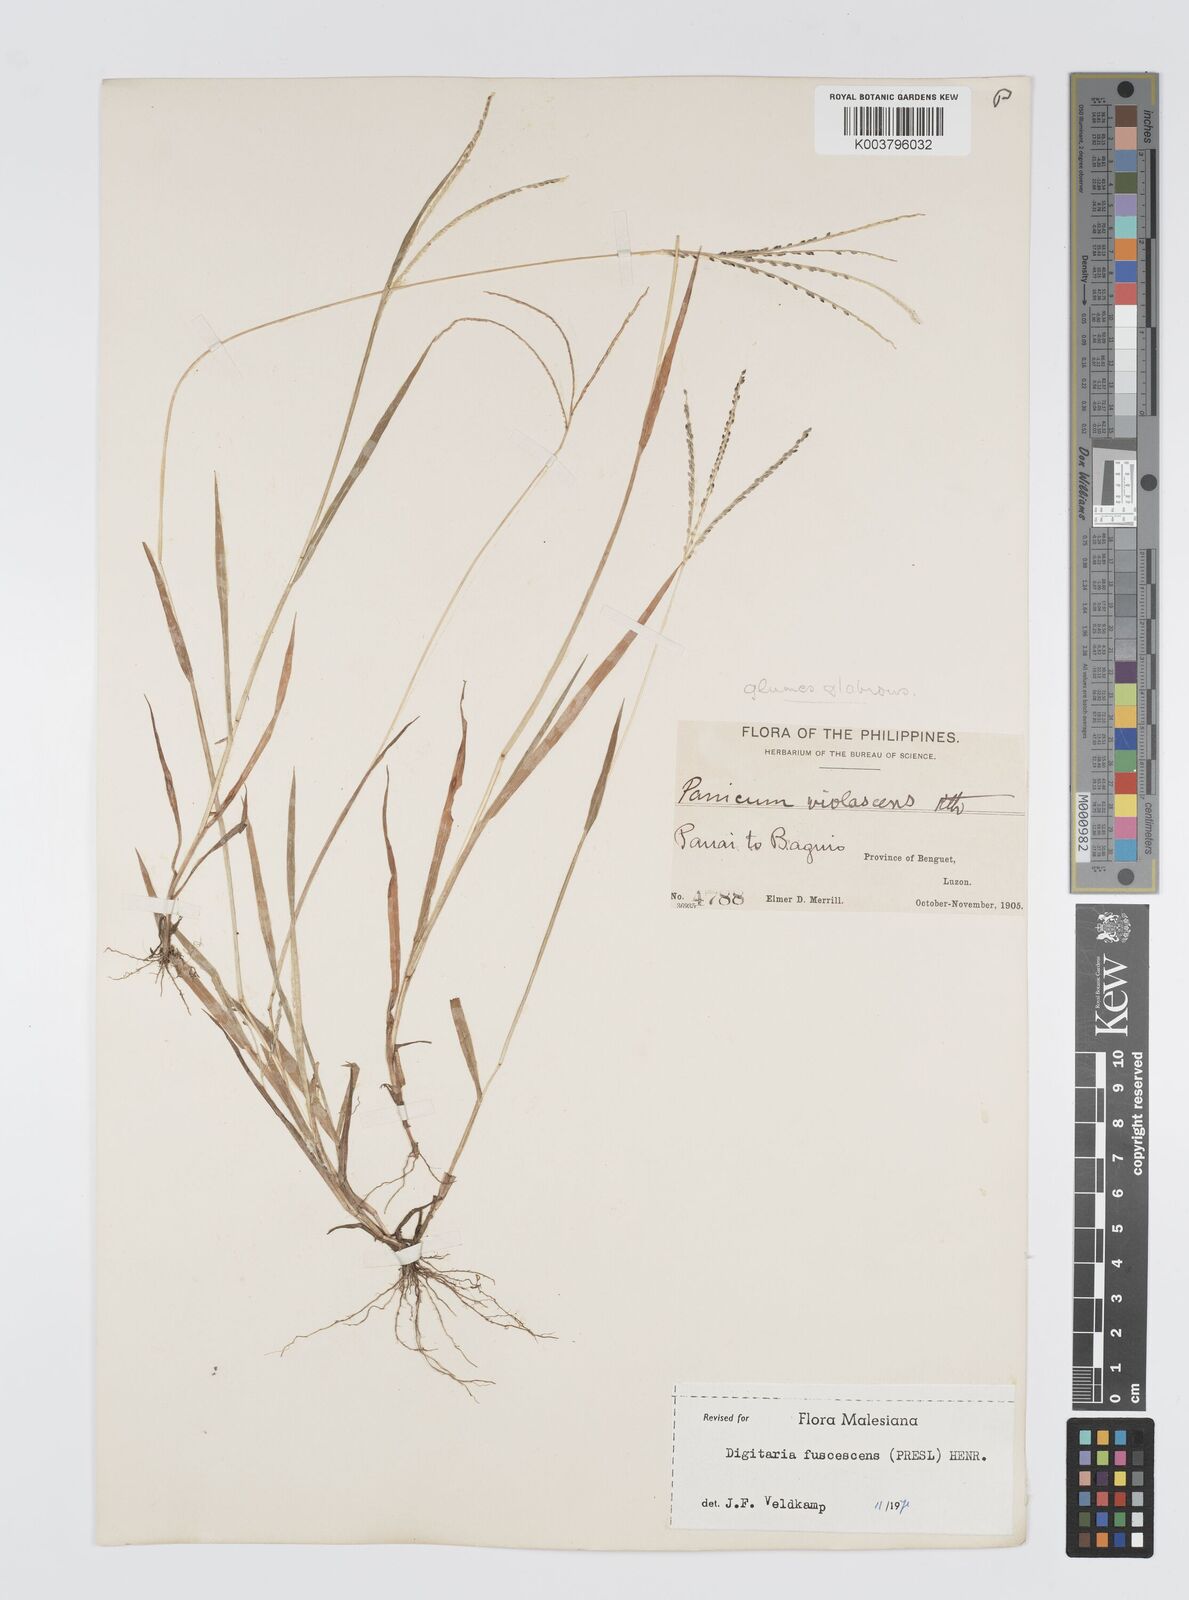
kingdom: Plantae
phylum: Tracheophyta
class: Liliopsida
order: Poales
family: Poaceae
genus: Digitaria
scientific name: Digitaria ciliaris
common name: Tropical finger-grass
